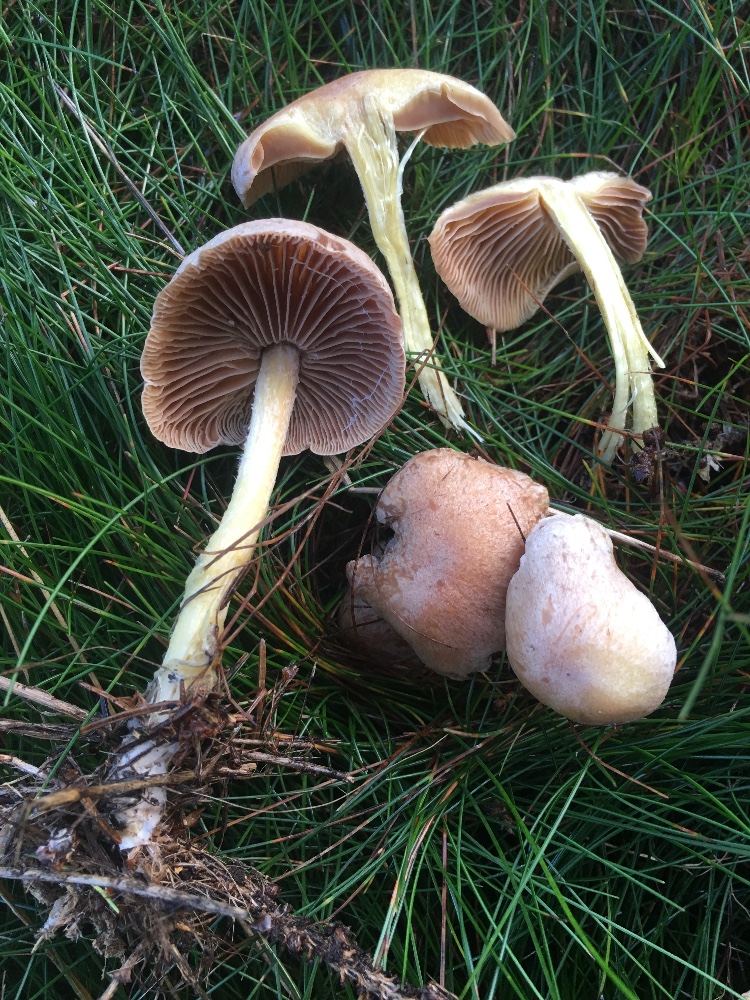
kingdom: Fungi
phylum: Basidiomycota
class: Agaricomycetes
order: Agaricales
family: Omphalotaceae
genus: Collybiopsis
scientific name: Collybiopsis peronata
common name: bestøvlet fladhat
